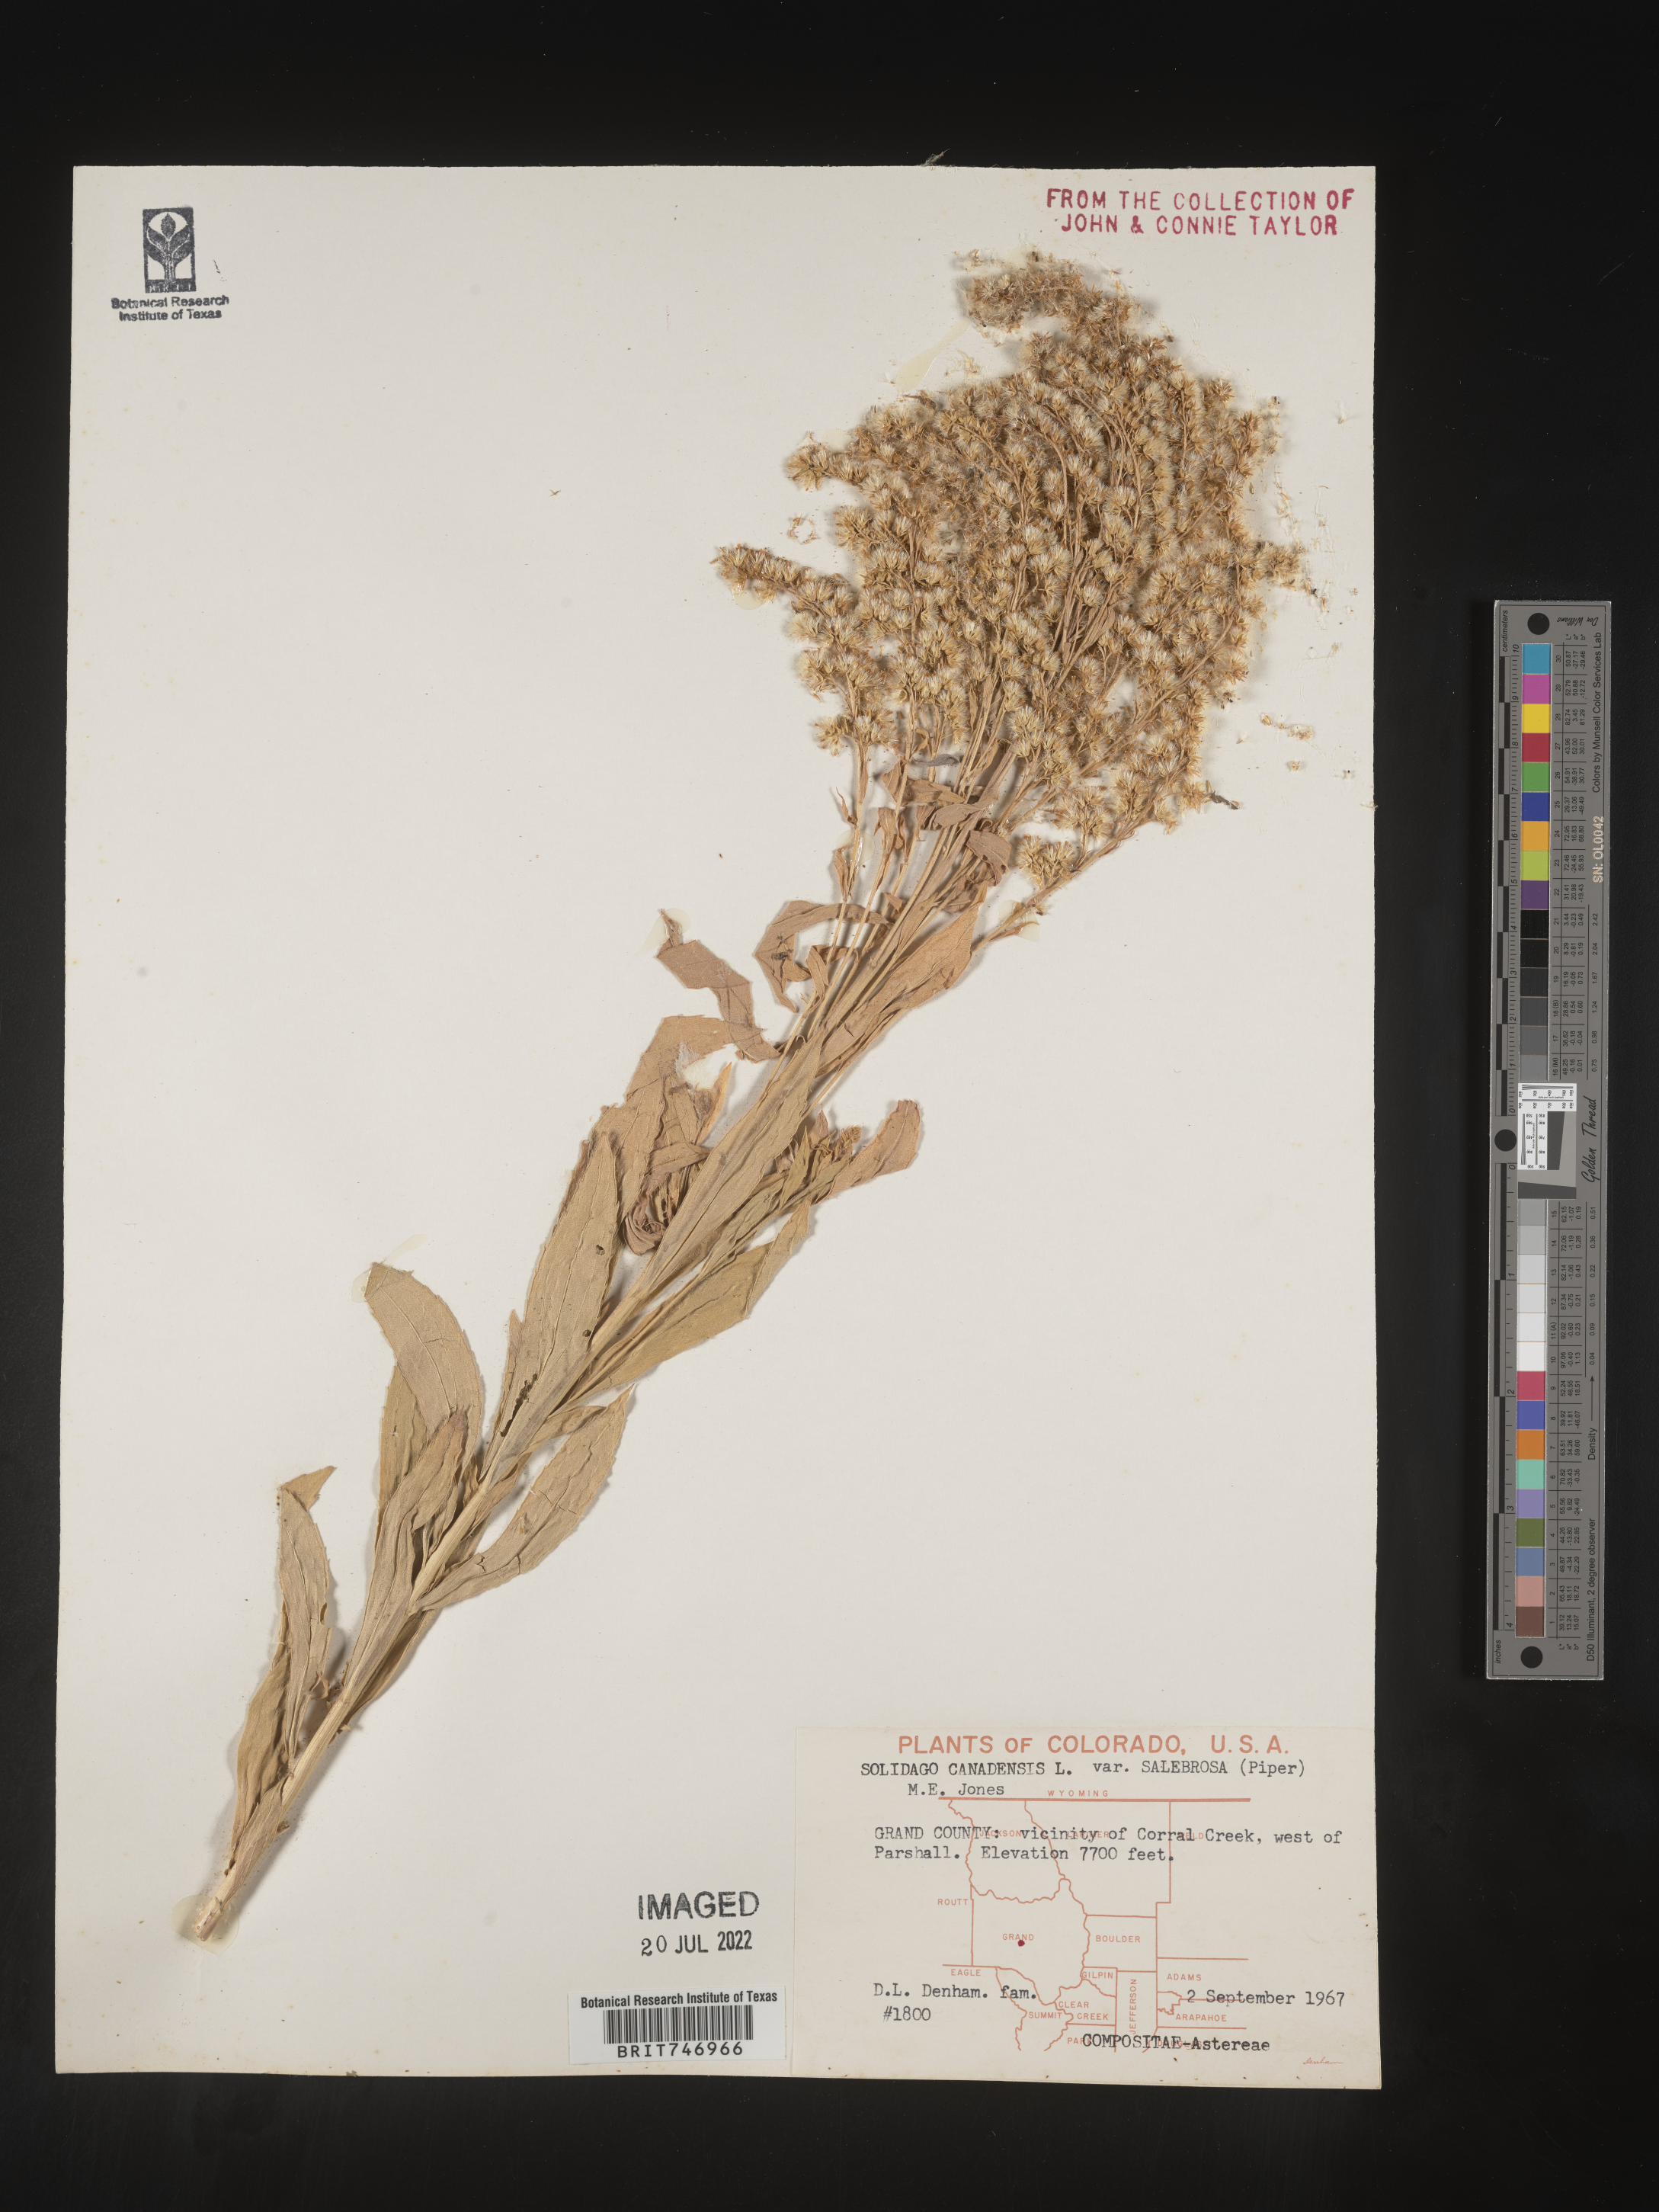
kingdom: Plantae
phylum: Tracheophyta
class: Magnoliopsida
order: Asterales
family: Asteraceae
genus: Solidago
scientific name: Solidago lepida
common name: Western canada goldenrod
